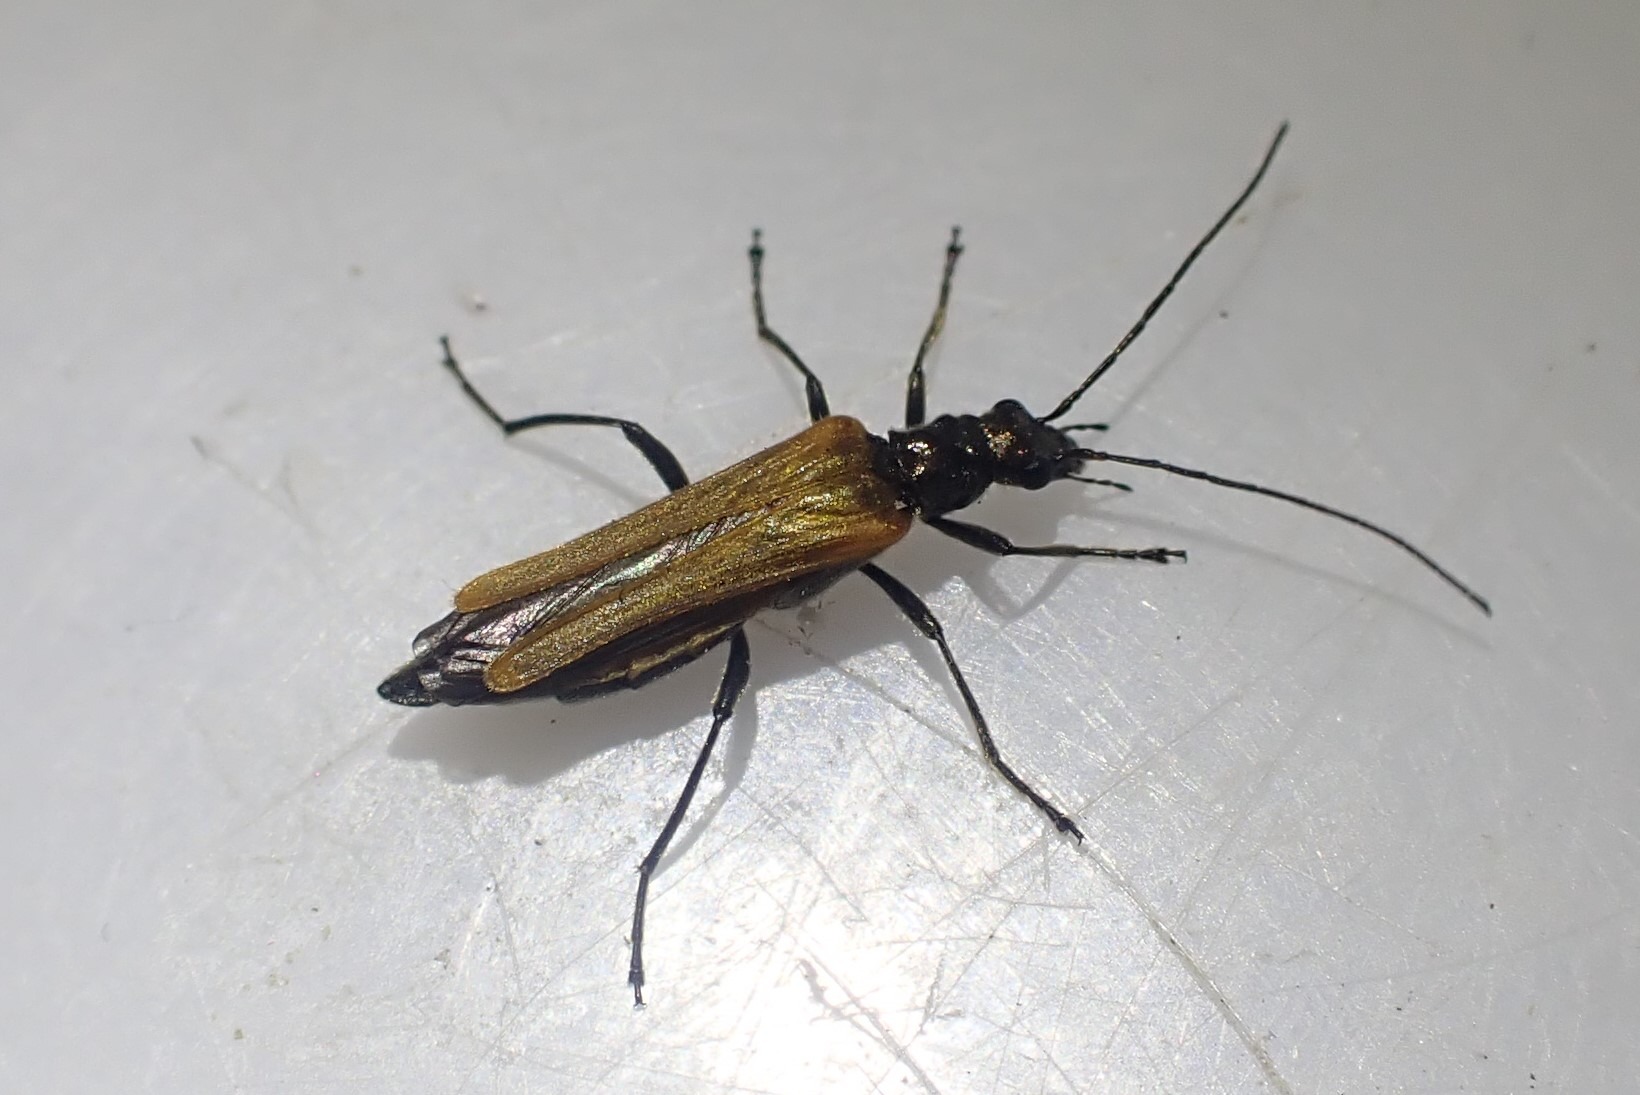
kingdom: Animalia
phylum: Arthropoda
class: Insecta
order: Coleoptera
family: Oedemeridae
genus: Oedemera
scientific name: Oedemera femorata
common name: Gulvinget solbille
